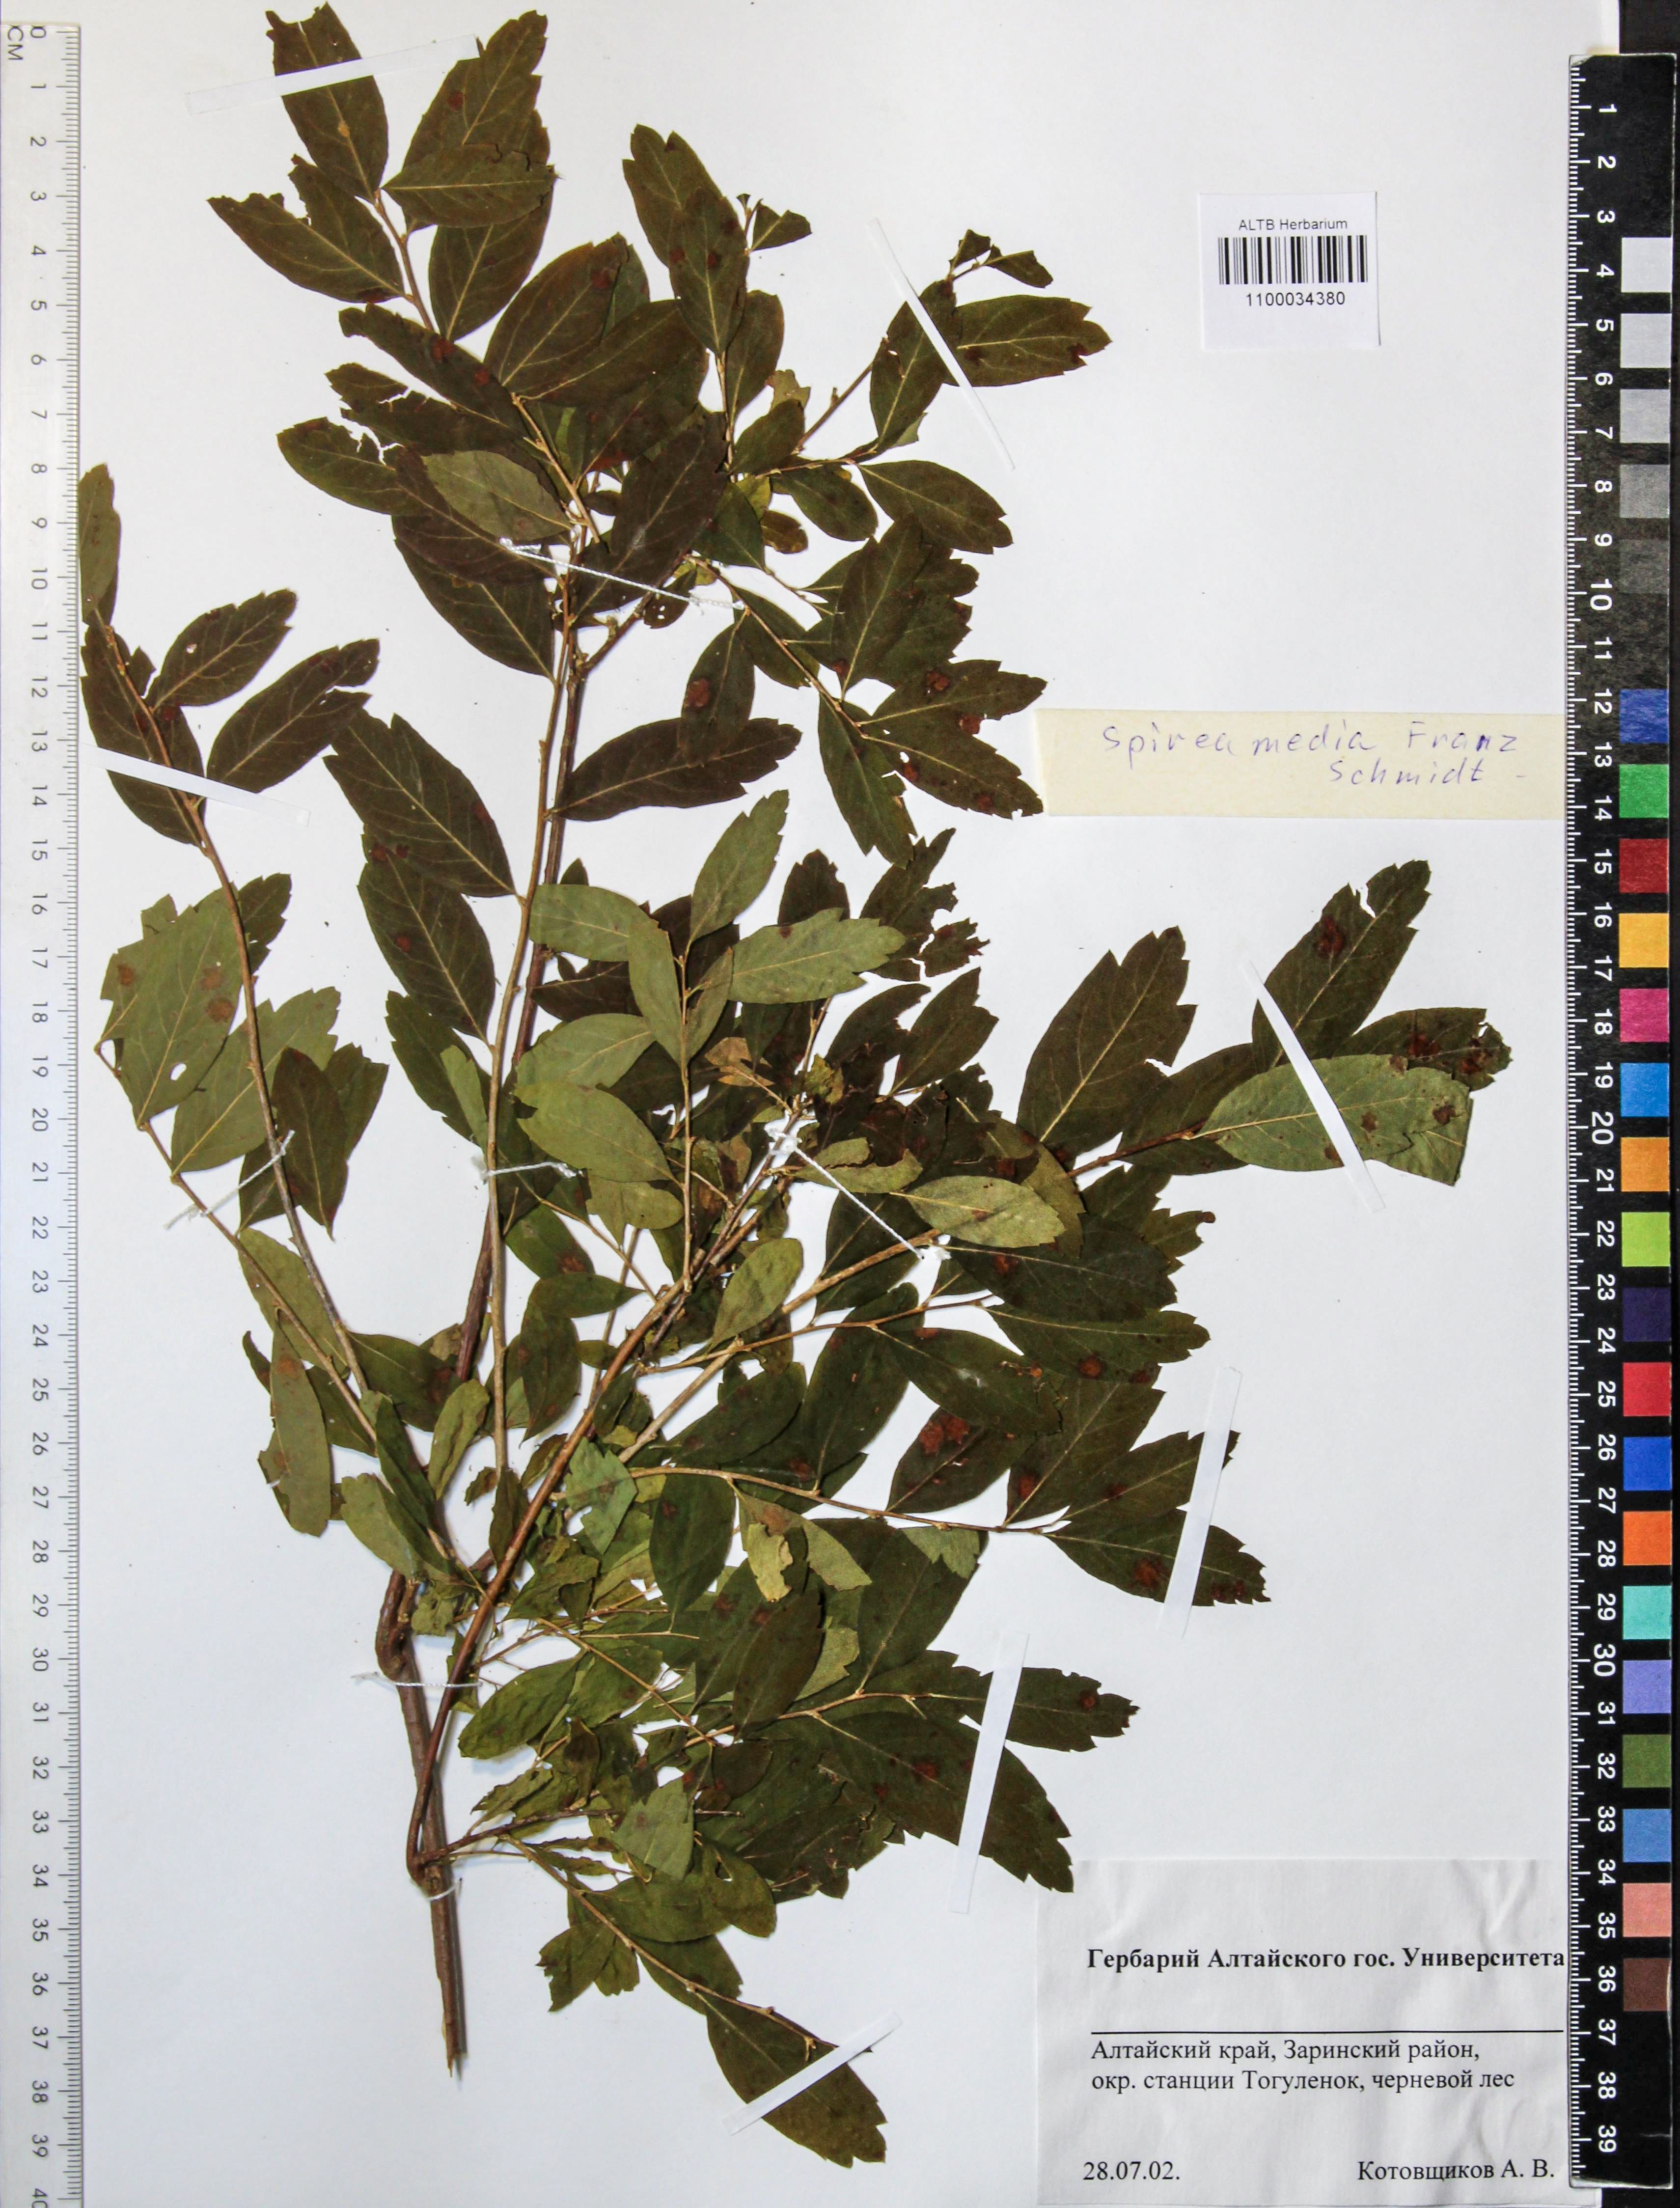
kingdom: Plantae
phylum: Tracheophyta
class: Magnoliopsida
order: Rosales
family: Rosaceae
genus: Spiraea
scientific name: Spiraea media
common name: Russian spiraea
